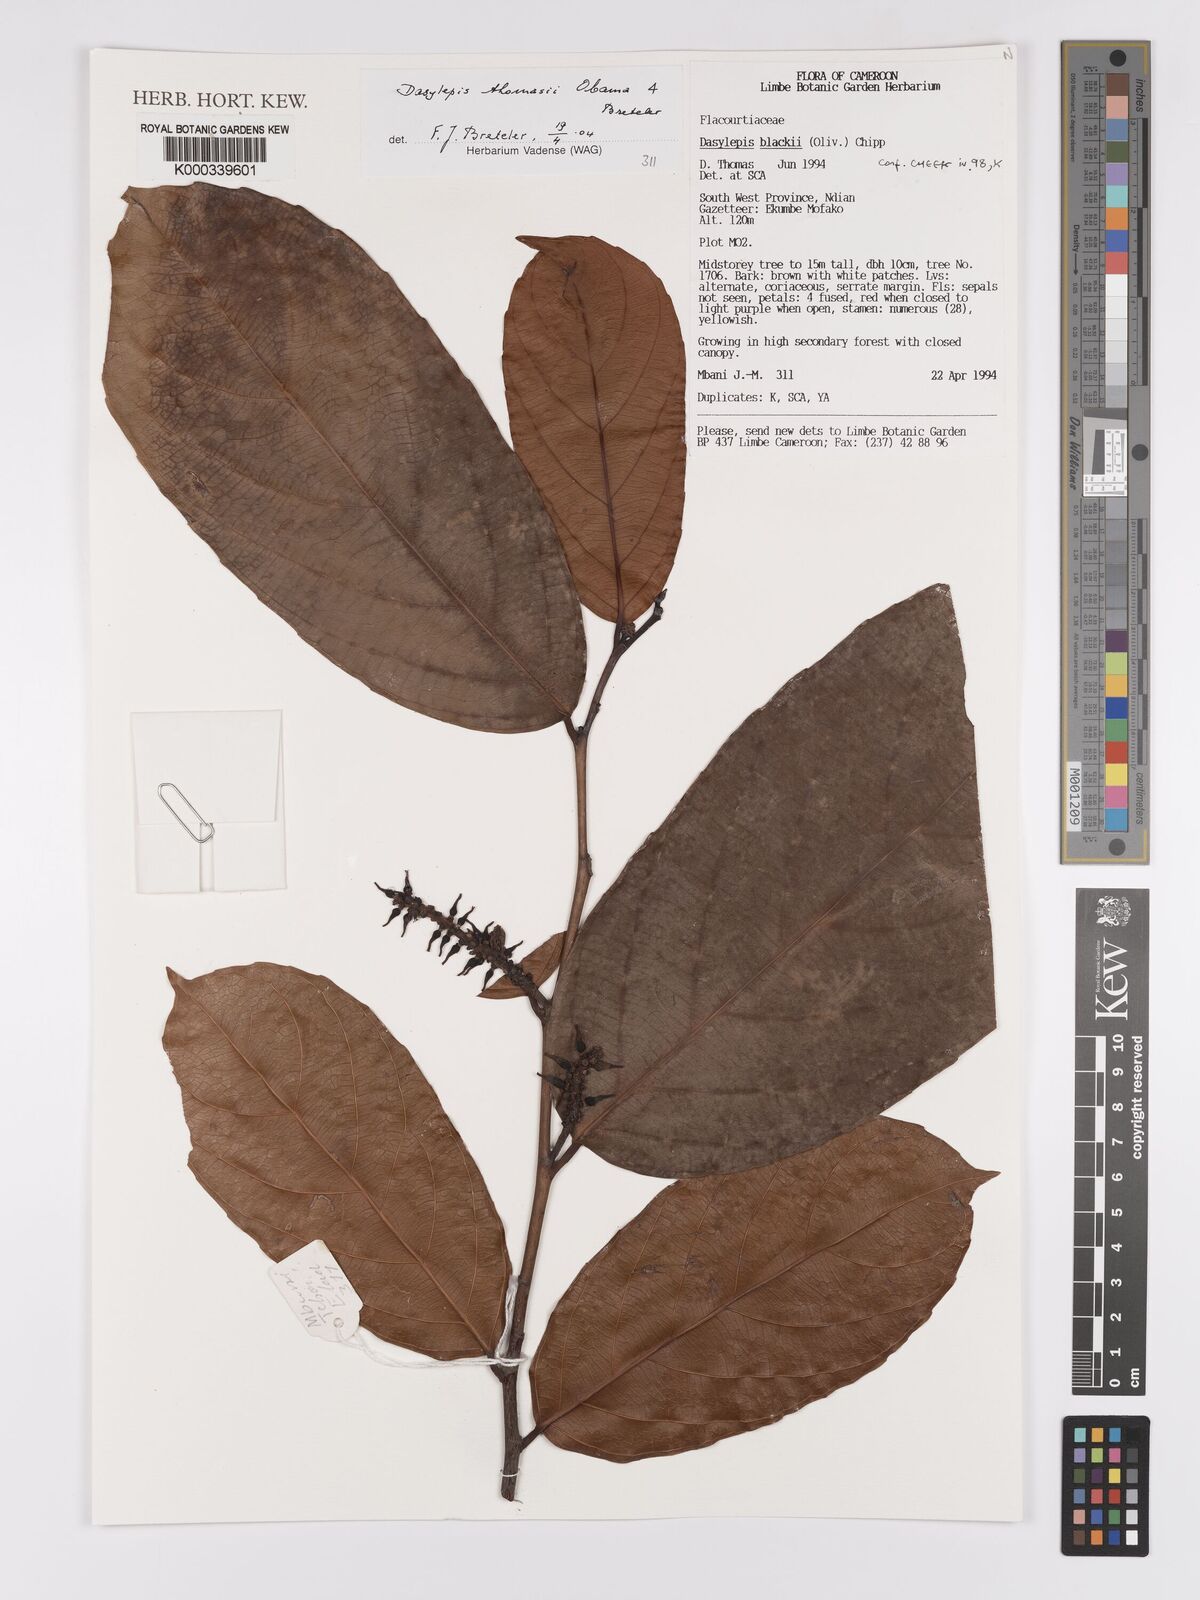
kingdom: Plantae
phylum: Tracheophyta
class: Magnoliopsida
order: Malpighiales
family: Achariaceae
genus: Dasylepis
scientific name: Dasylepis thomasii
